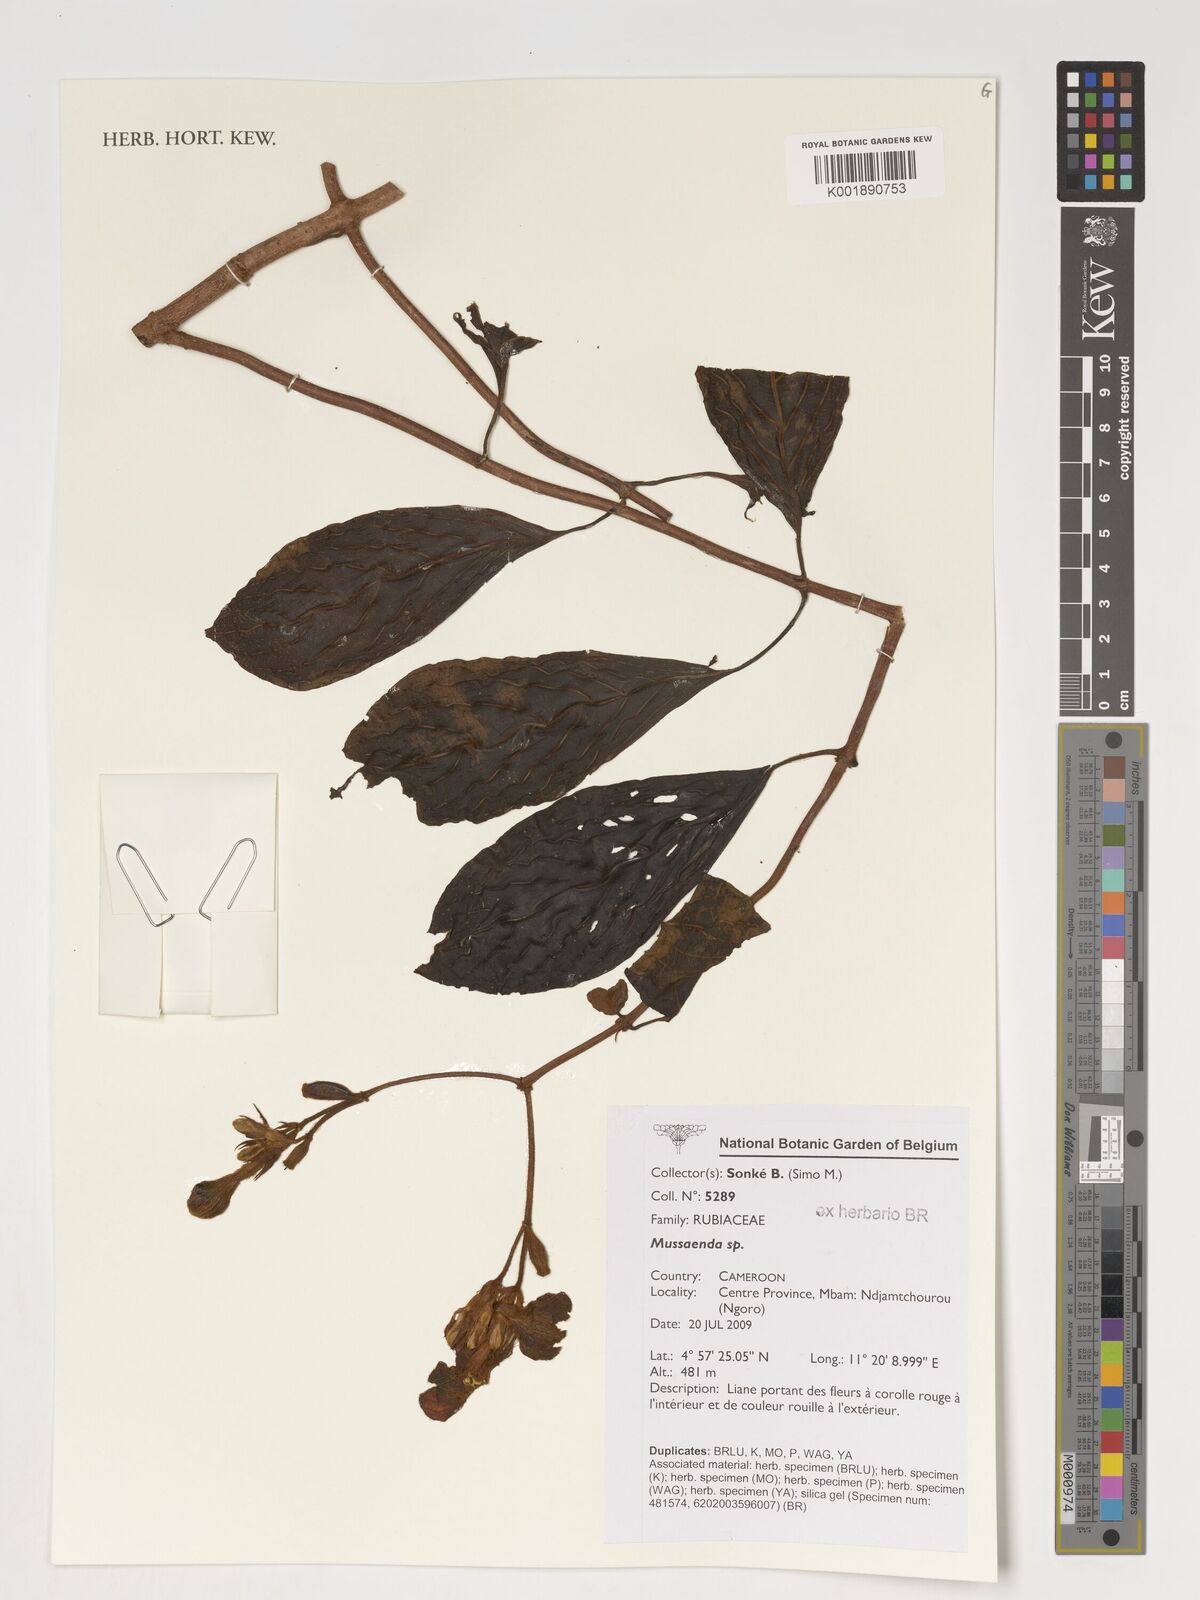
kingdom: Plantae
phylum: Tracheophyta
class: Magnoliopsida
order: Gentianales
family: Rubiaceae
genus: Mussaenda
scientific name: Mussaenda
